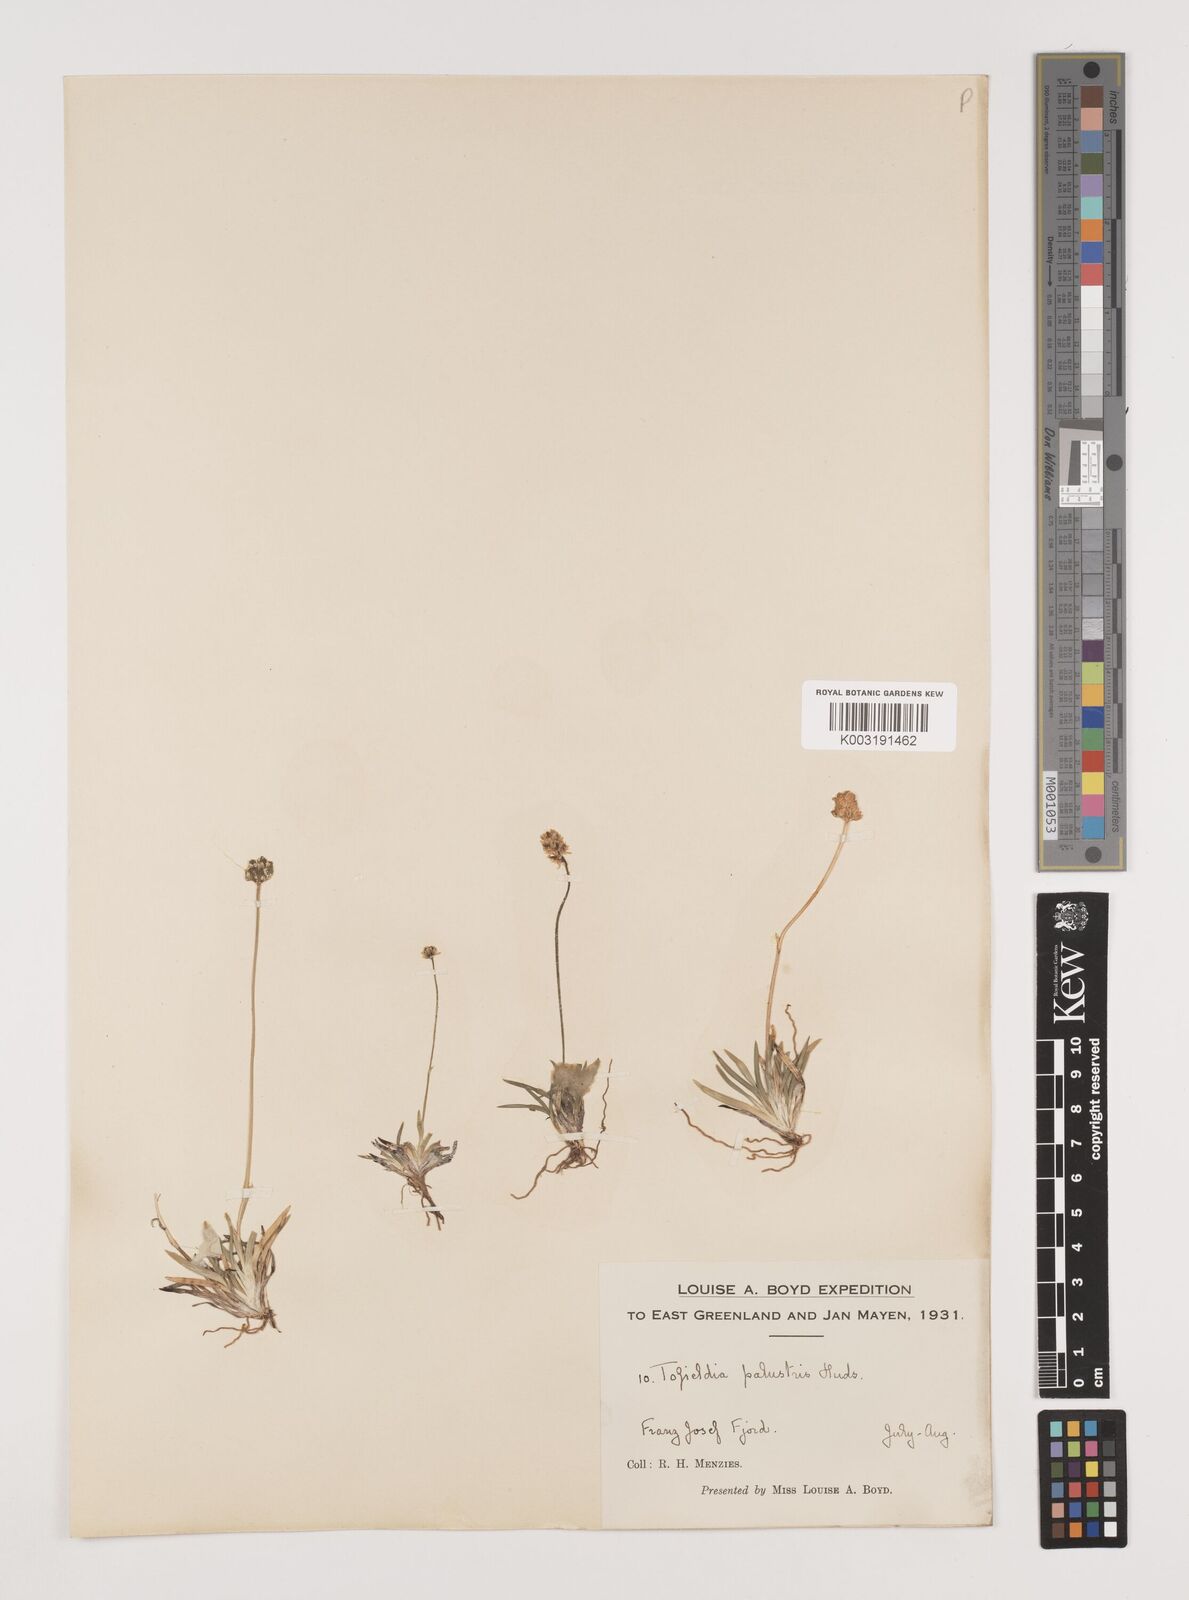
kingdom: Plantae
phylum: Tracheophyta
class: Liliopsida
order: Alismatales
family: Tofieldiaceae
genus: Tofieldia
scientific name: Tofieldia calyculata
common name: German-asphodel
